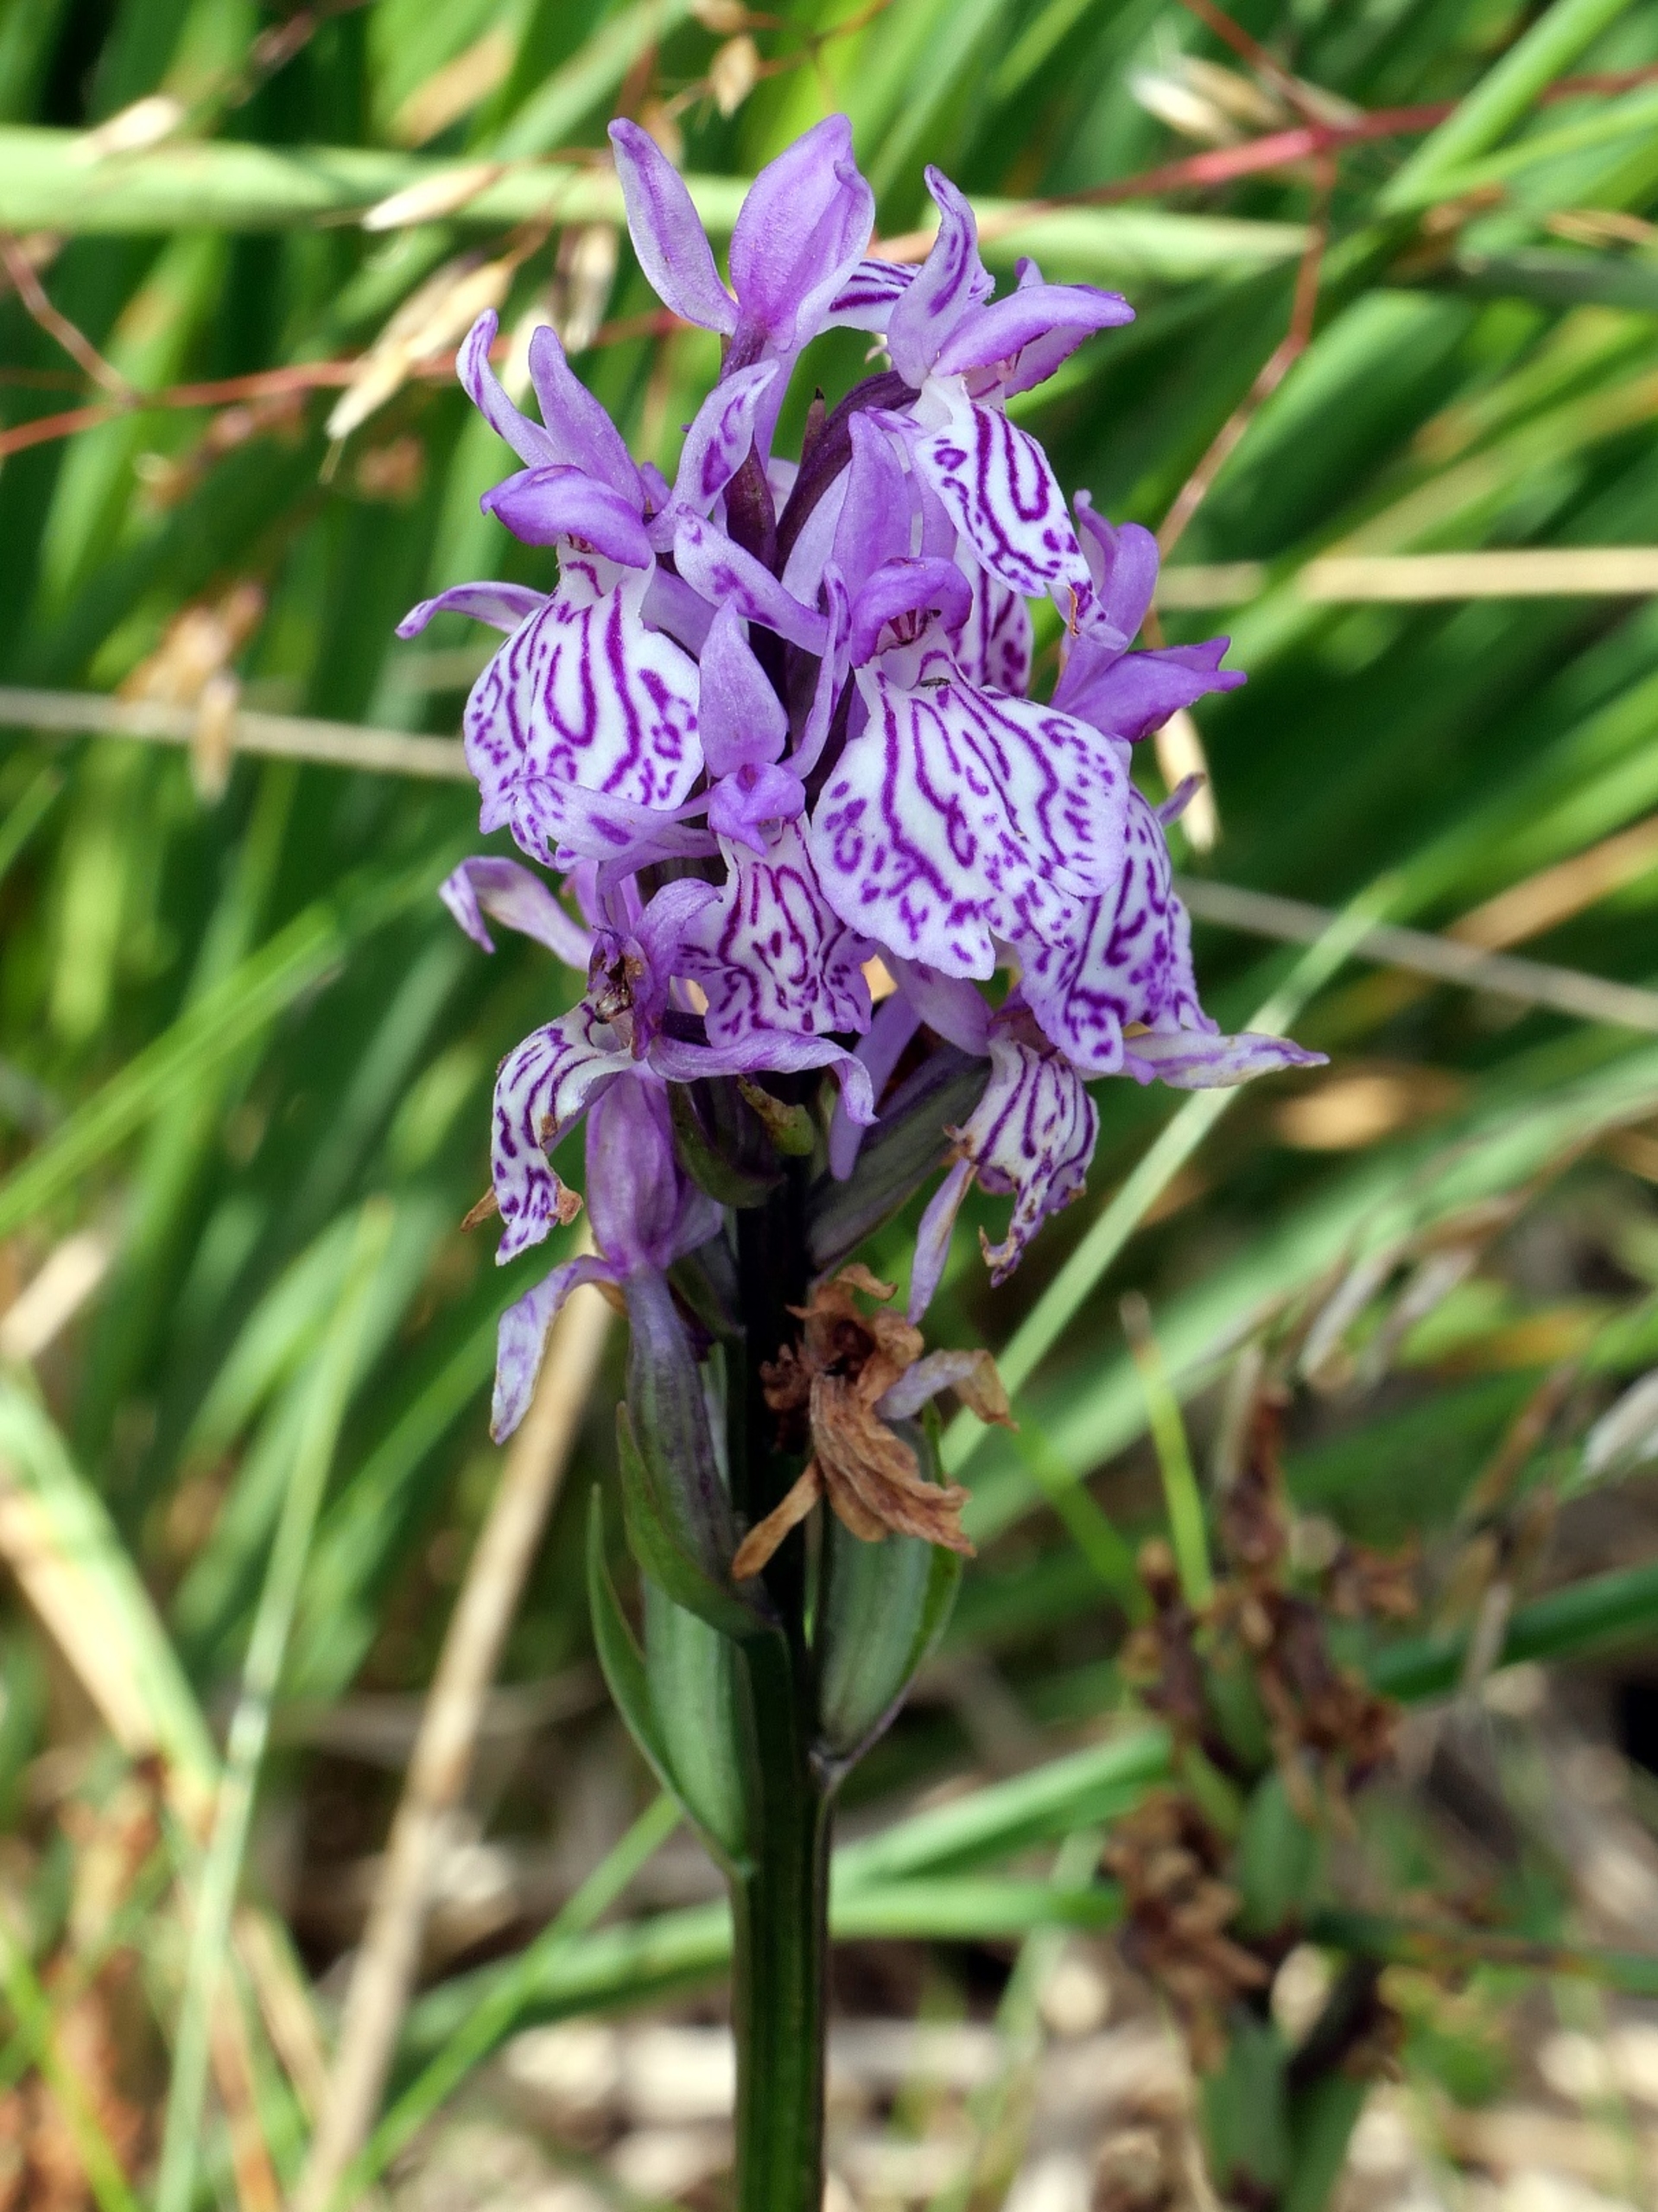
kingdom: Plantae
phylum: Tracheophyta
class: Liliopsida
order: Asparagales
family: Orchidaceae
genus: Dactylorhiza
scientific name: Dactylorhiza maculata
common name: Plettet gøgeurt (underart)
